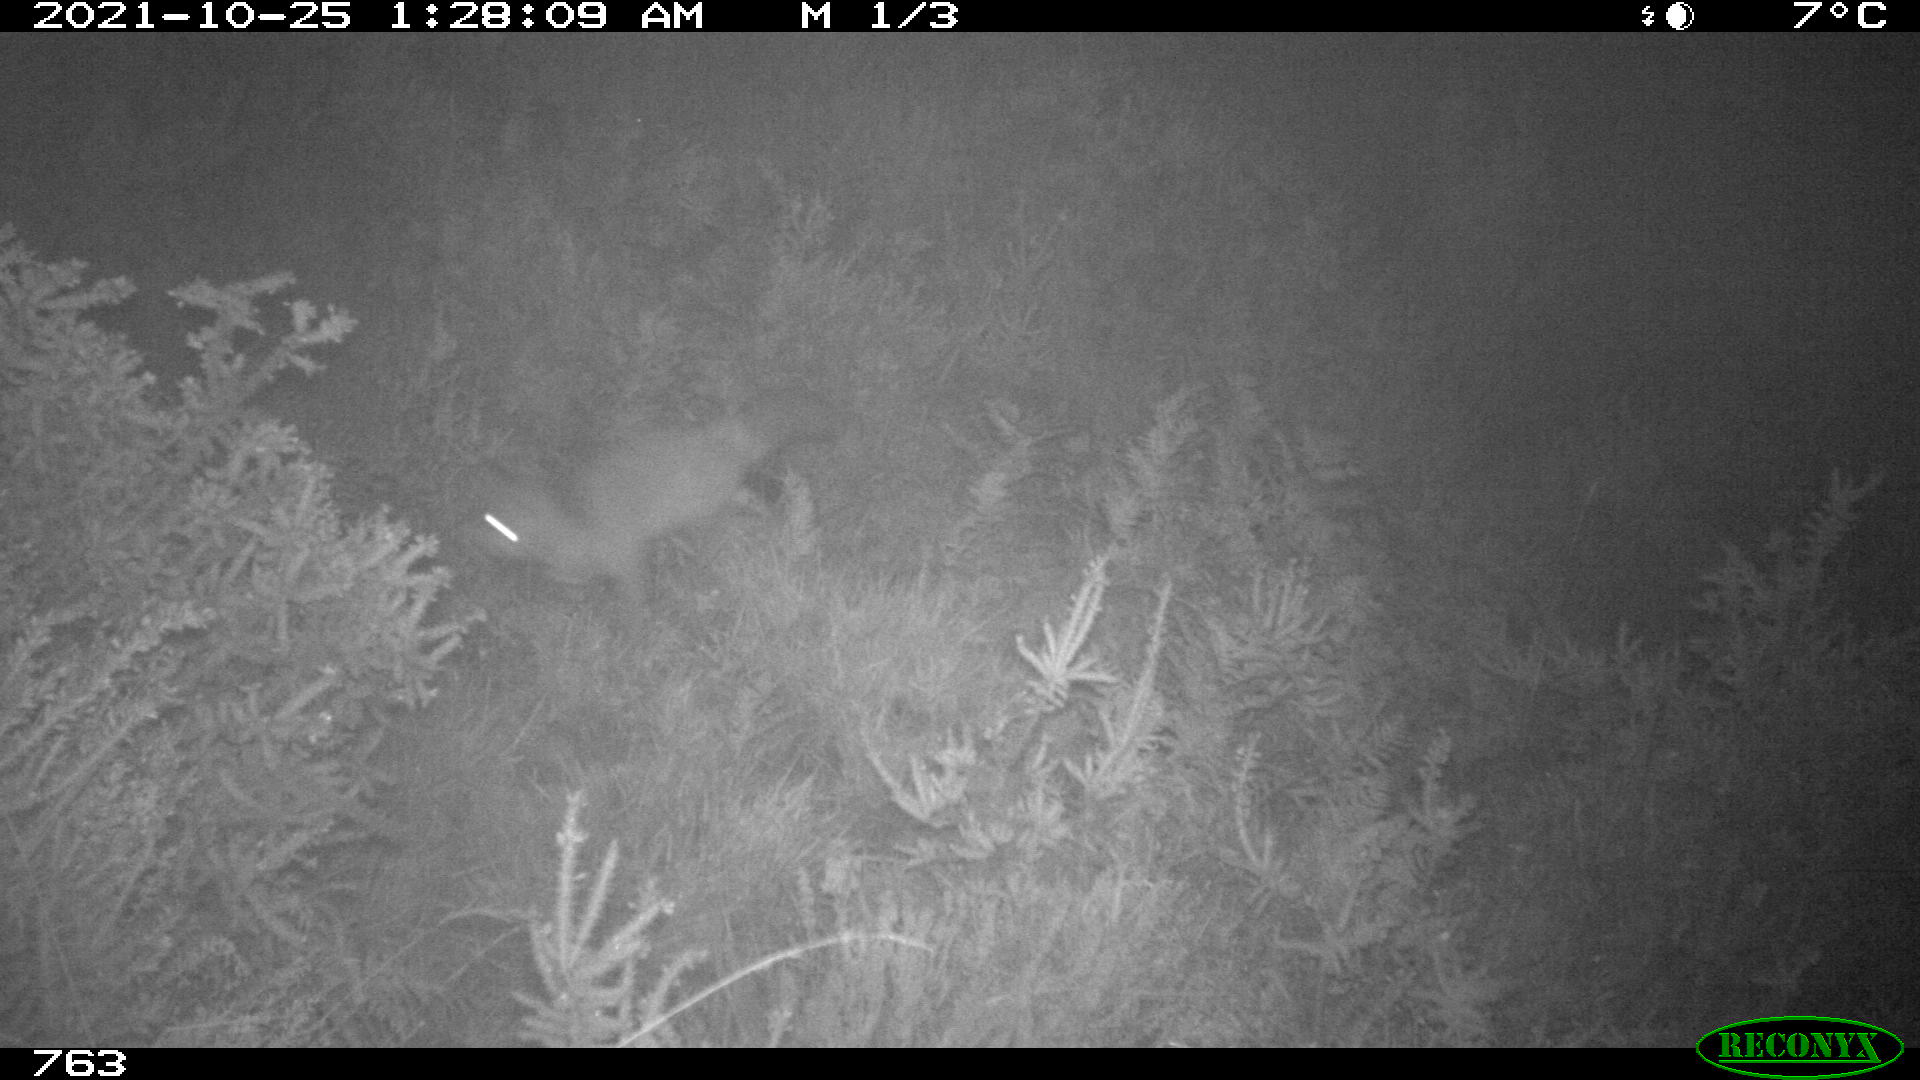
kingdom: Animalia
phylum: Chordata
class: Mammalia
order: Carnivora
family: Canidae
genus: Vulpes
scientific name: Vulpes vulpes
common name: Red fox
